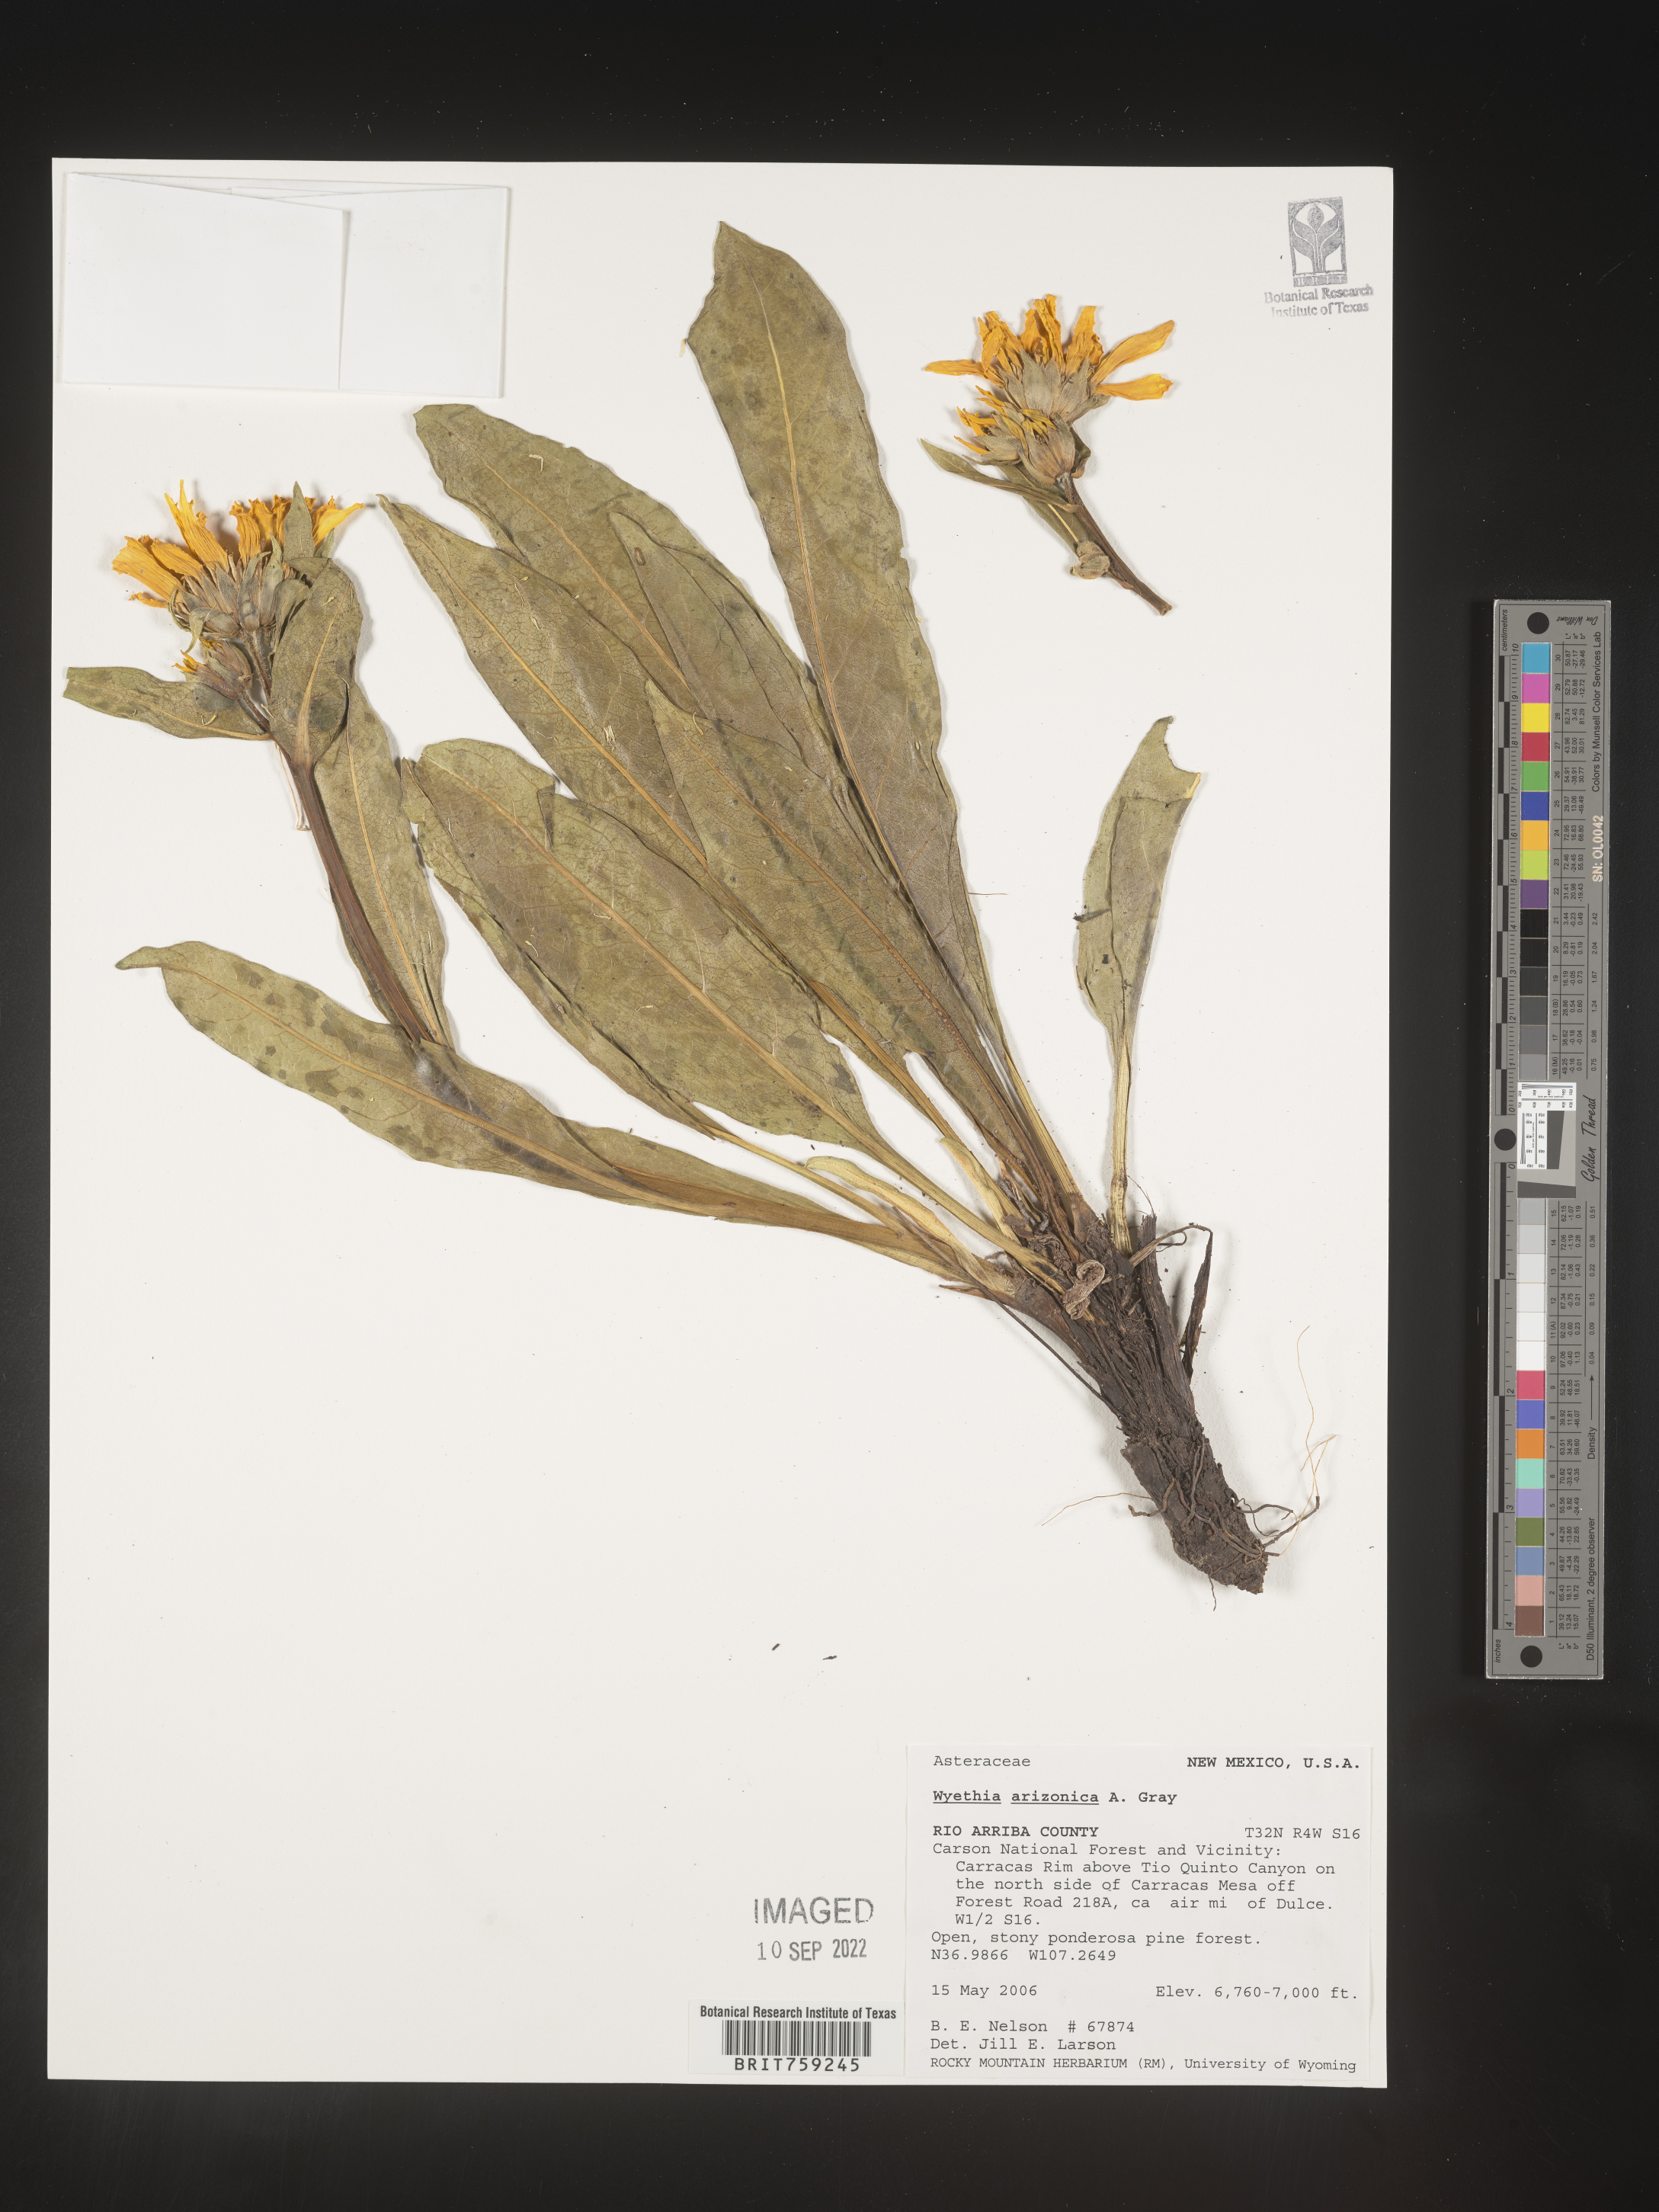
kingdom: Plantae
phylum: Tracheophyta
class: Magnoliopsida
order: Asterales
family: Asteraceae
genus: Wyethia
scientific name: Wyethia arizonica
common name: Arizona mule's-ears
